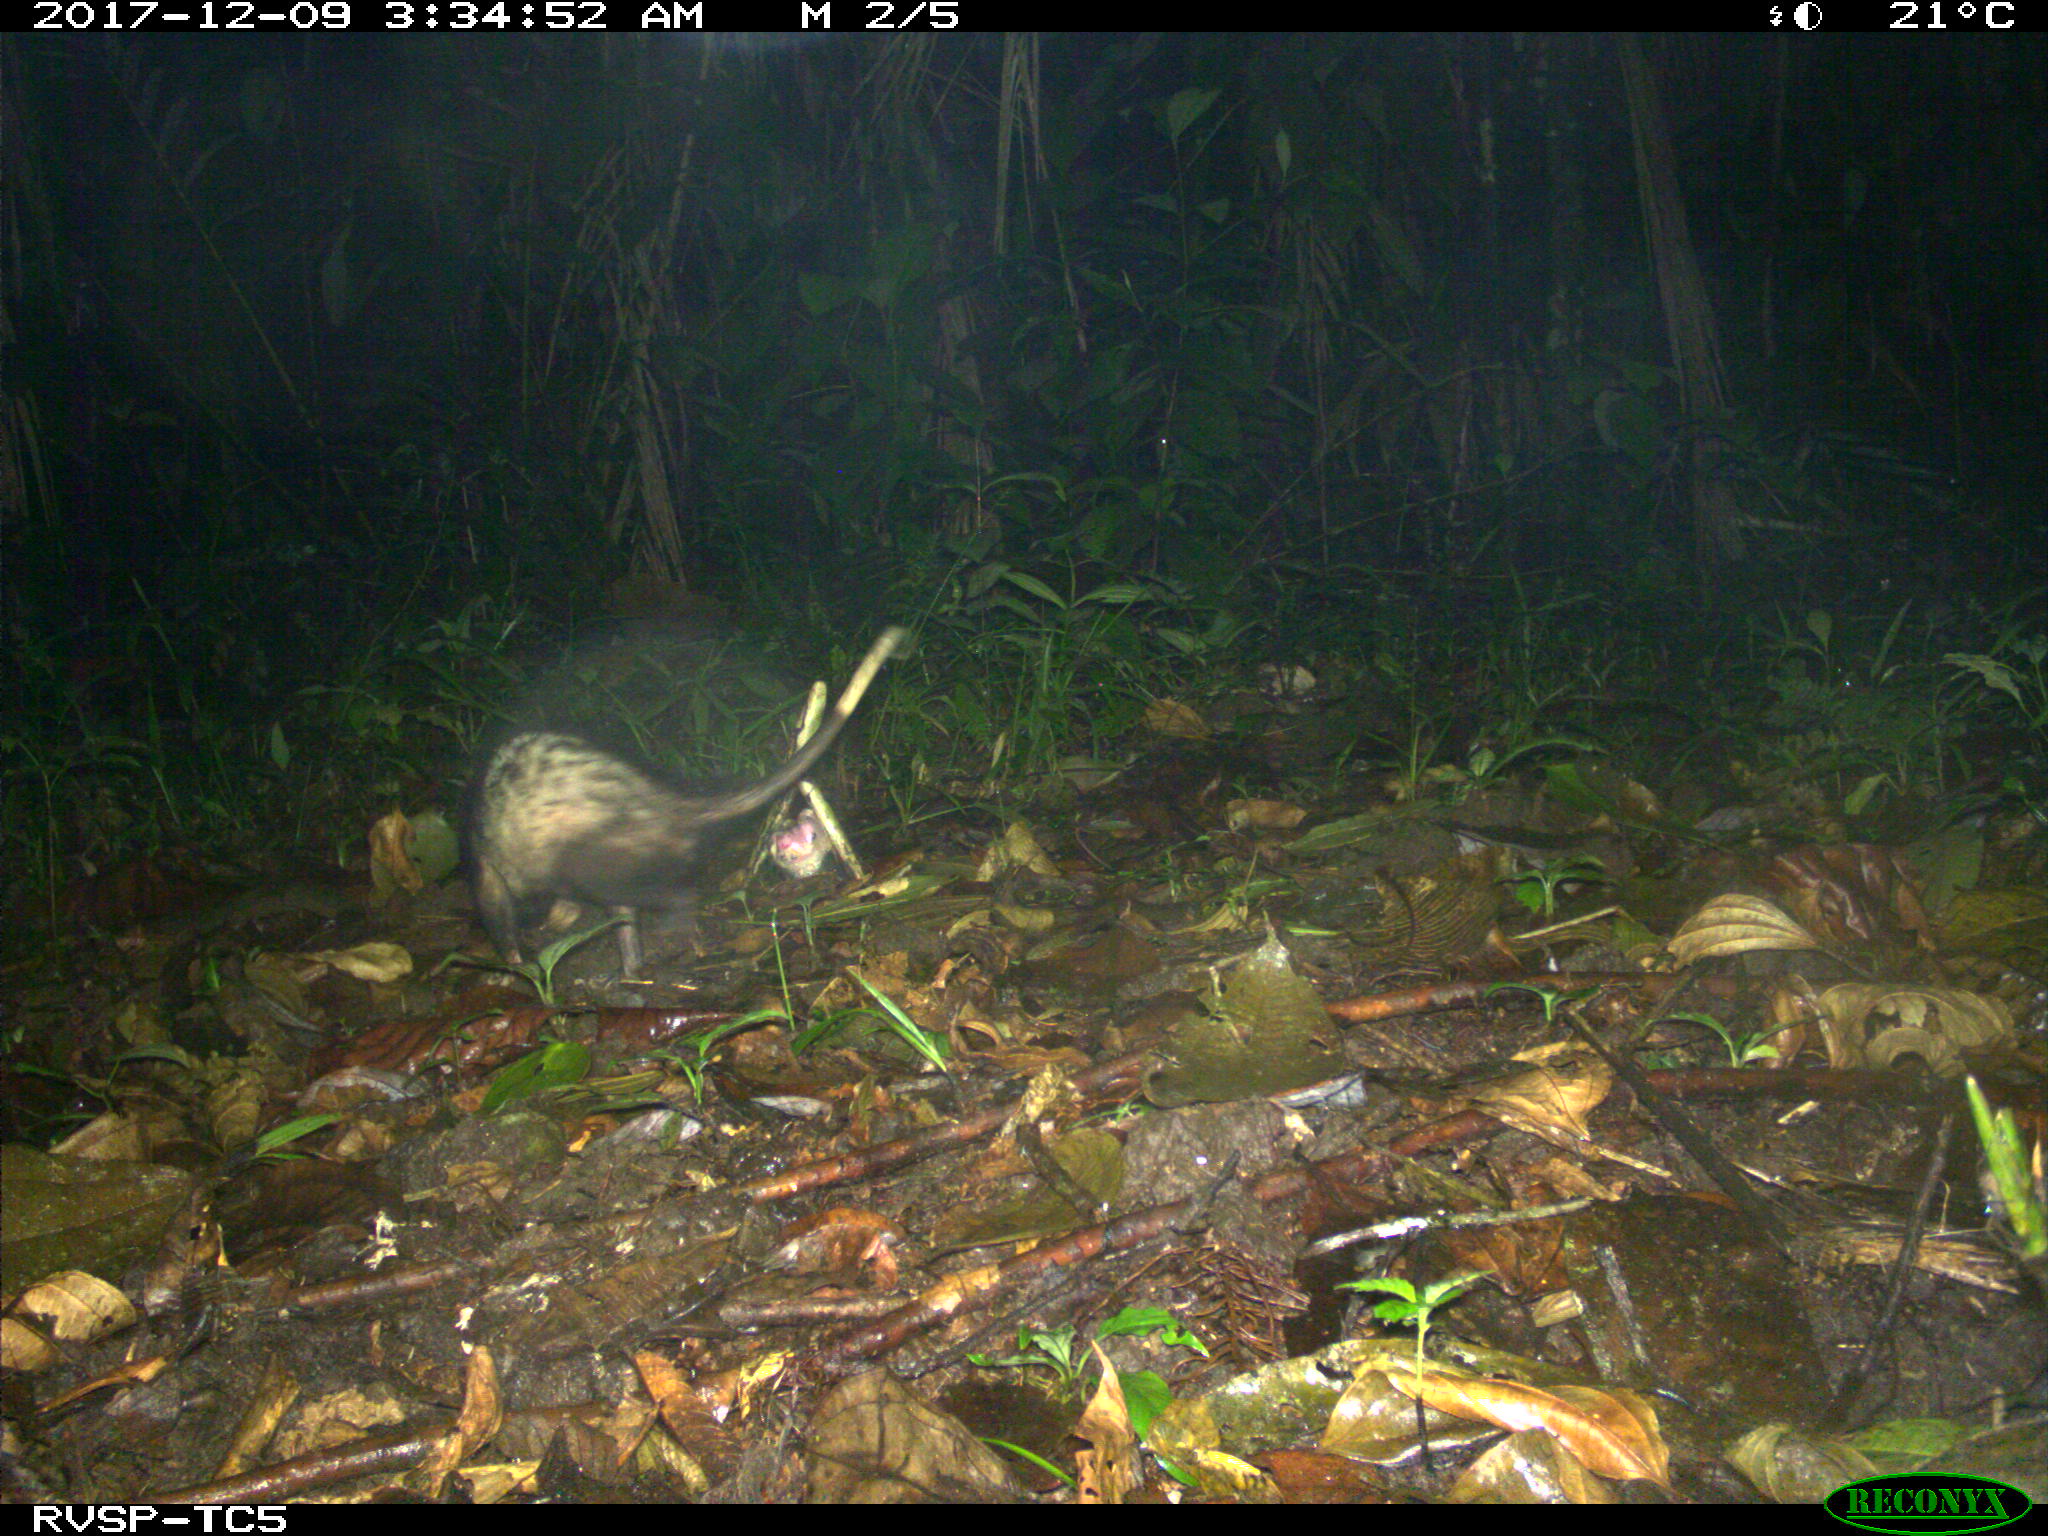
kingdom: Animalia
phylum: Chordata
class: Mammalia
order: Didelphimorphia
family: Didelphidae
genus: Didelphis
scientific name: Didelphis marsupialis
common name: Common opossum
